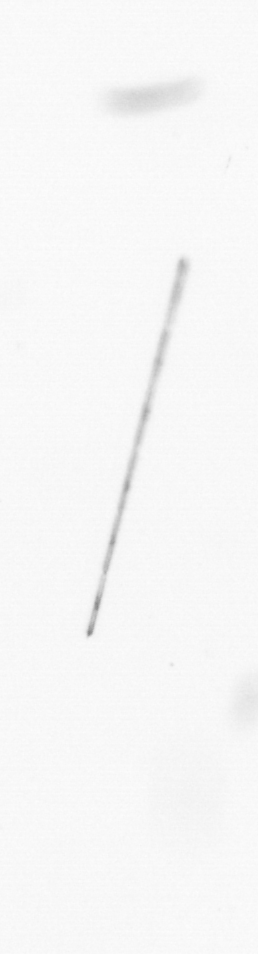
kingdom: Chromista
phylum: Ochrophyta
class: Bacillariophyceae
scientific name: Bacillariophyceae
